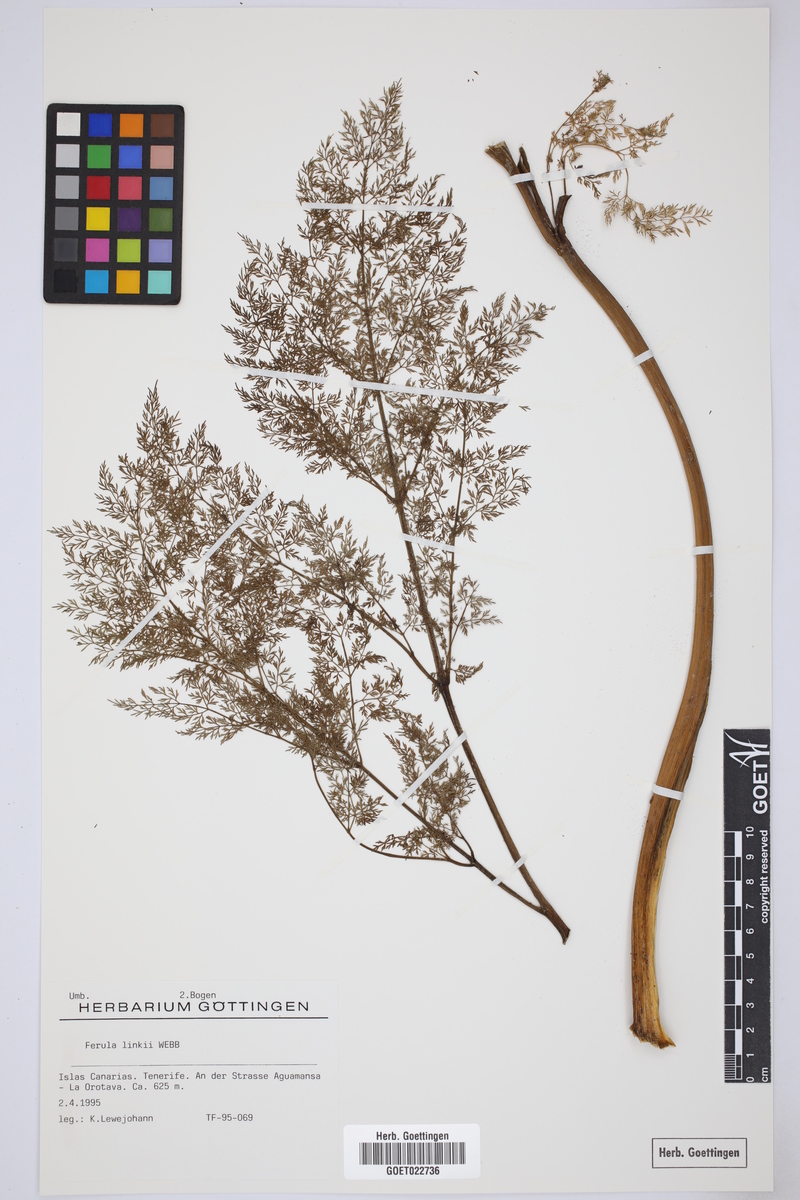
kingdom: Plantae
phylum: Tracheophyta
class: Magnoliopsida
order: Apiales
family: Apiaceae
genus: Ferula
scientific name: Ferula communis
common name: Giant fennel
